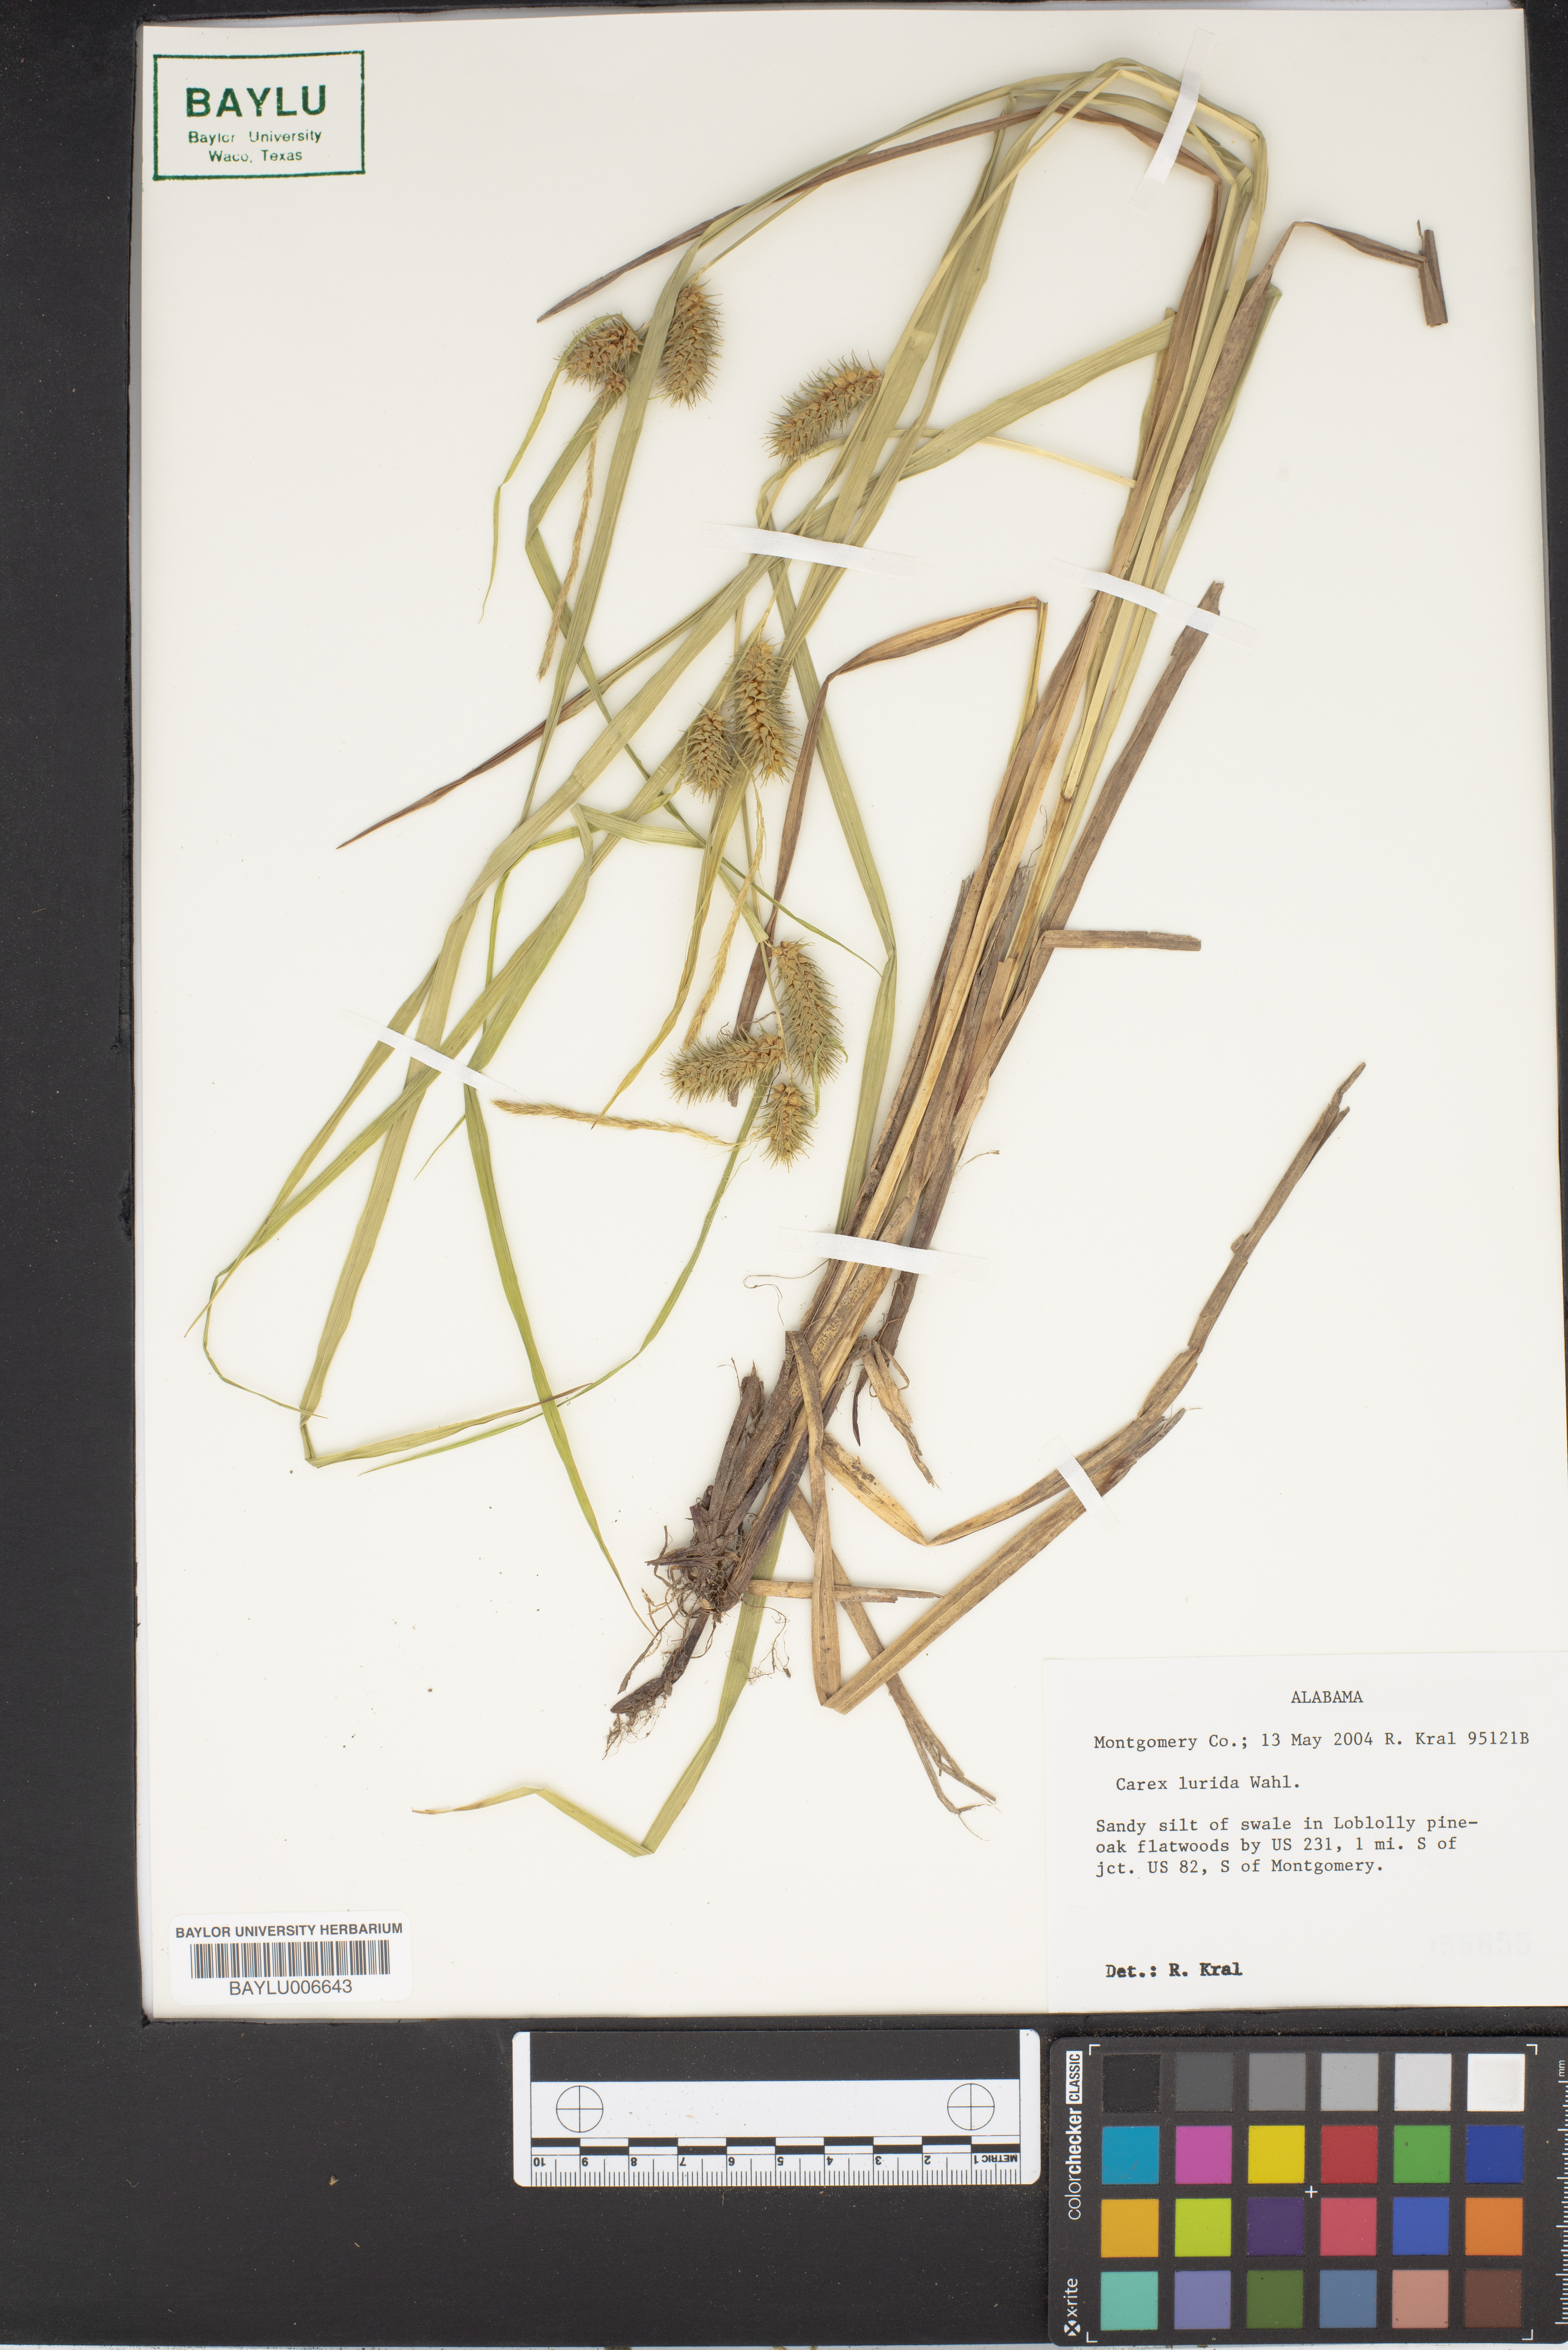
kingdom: Plantae
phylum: Tracheophyta
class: Liliopsida
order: Poales
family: Cyperaceae
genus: Carex
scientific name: Carex lurida
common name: Sallow sedge
